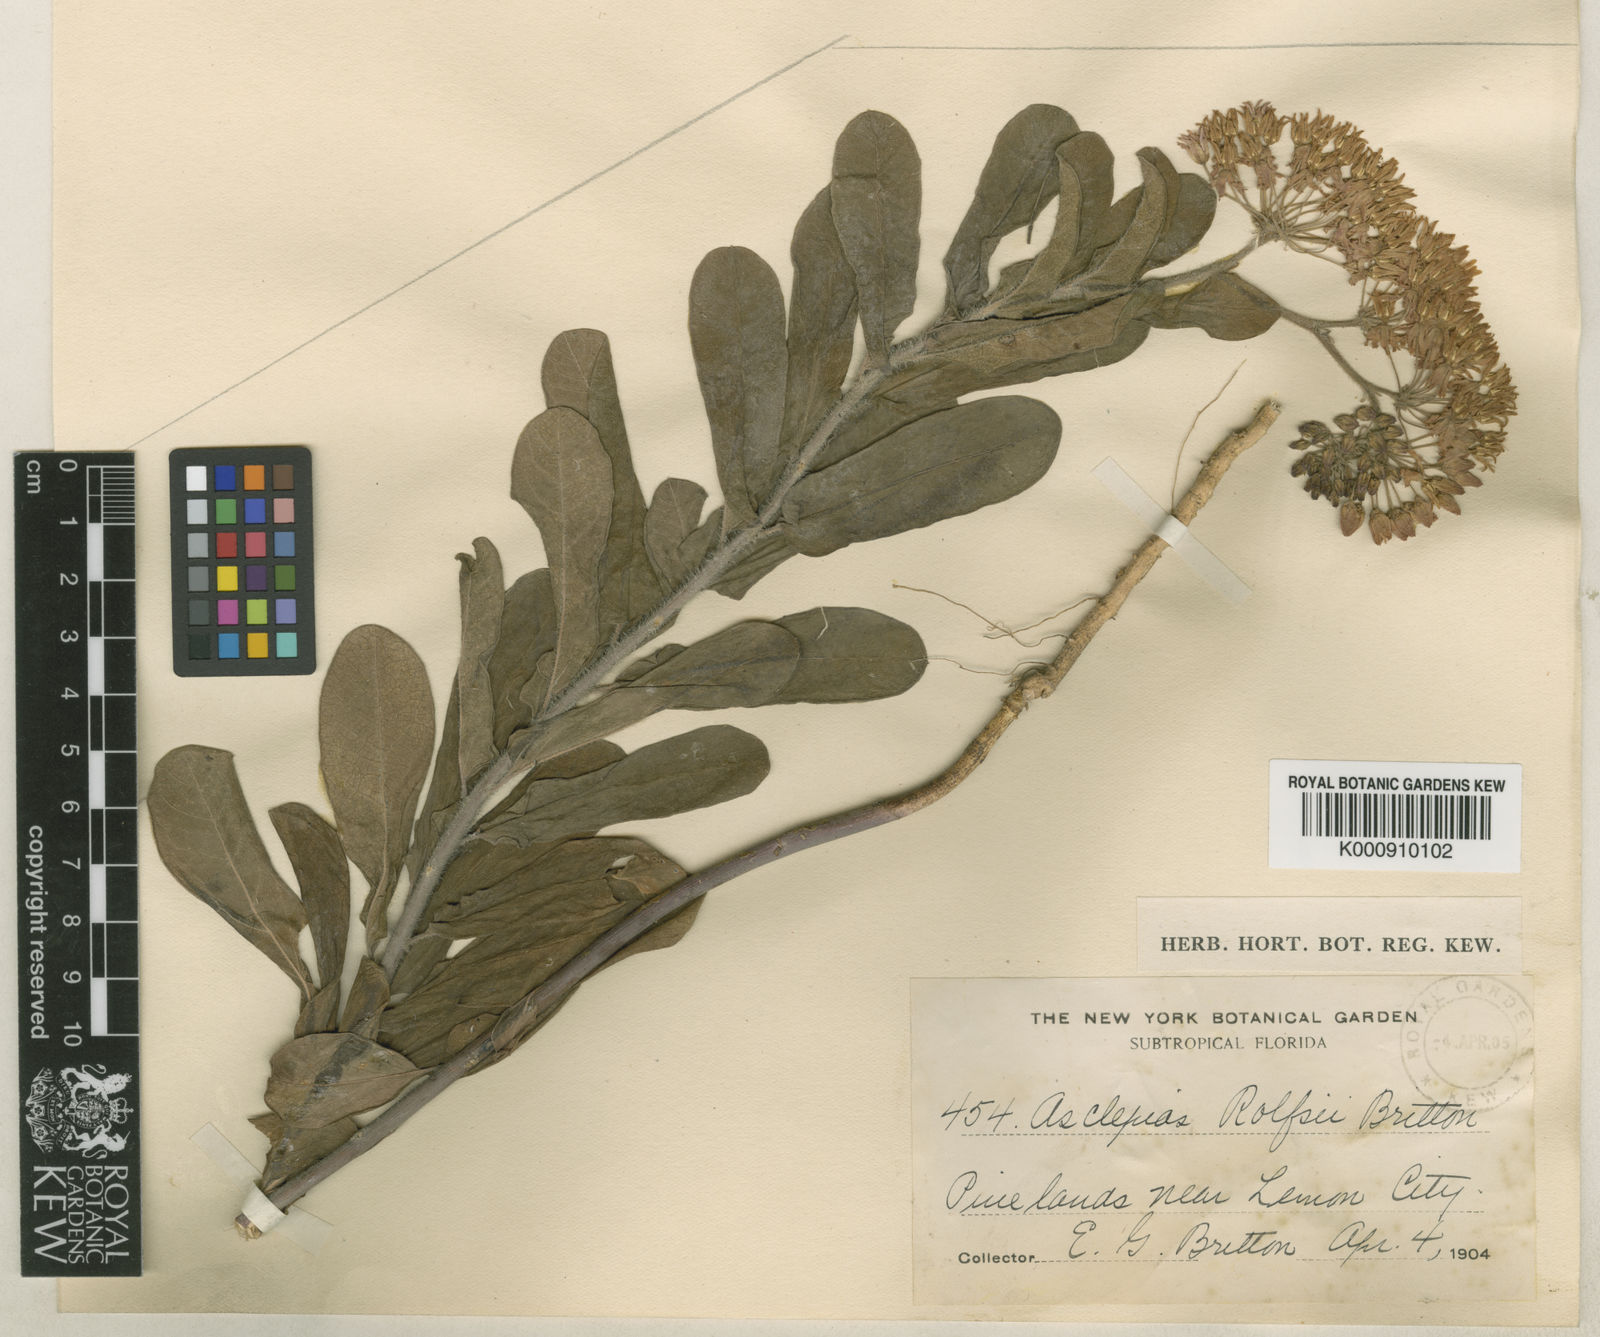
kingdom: Plantae
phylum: Tracheophyta
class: Magnoliopsida
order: Gentianales
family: Apocynaceae
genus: Asclepias
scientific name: Asclepias tuberosa
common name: Butterfly milkweed
